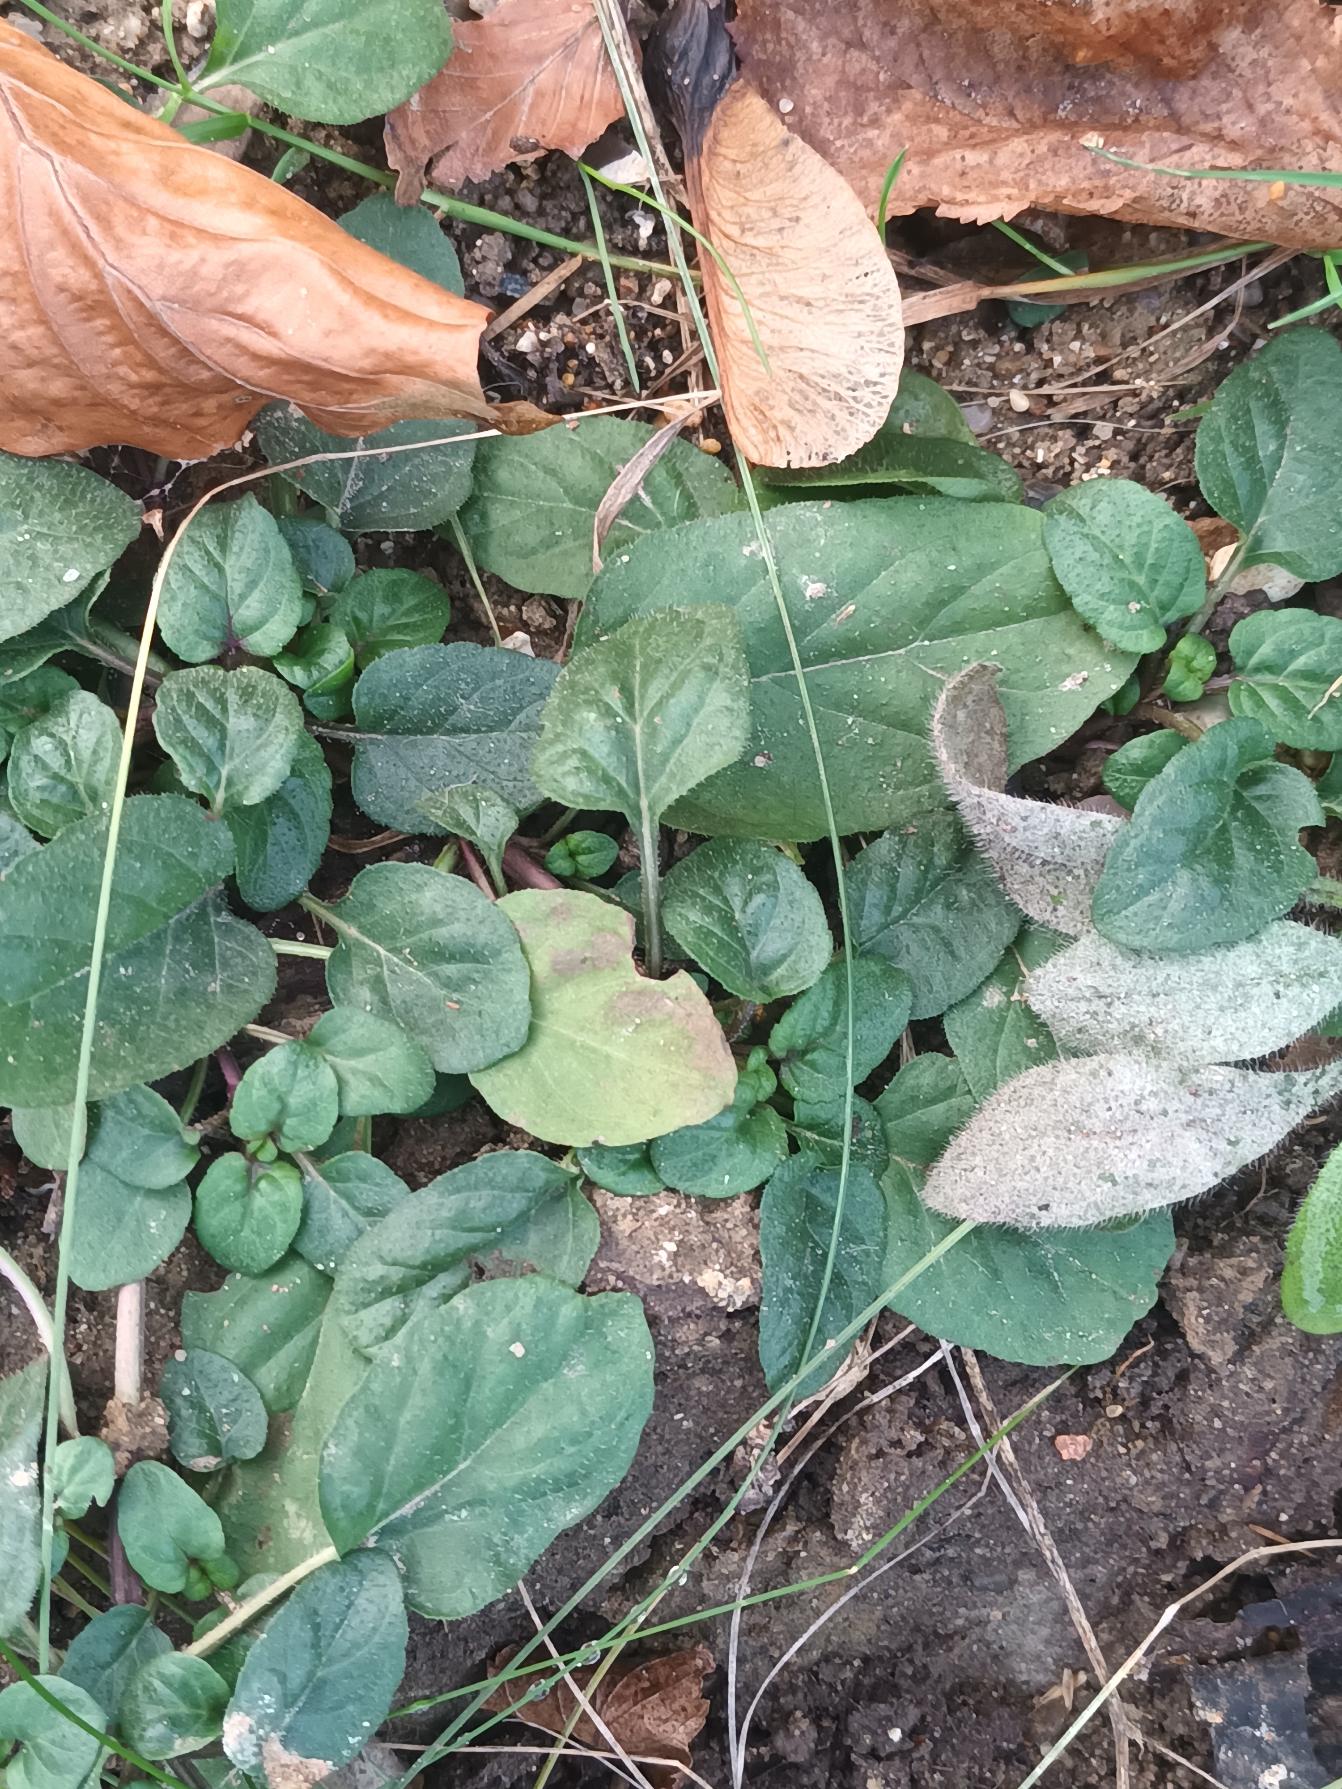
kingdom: Plantae
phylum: Tracheophyta
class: Magnoliopsida
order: Lamiales
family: Lamiaceae
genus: Prunella
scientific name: Prunella vulgaris
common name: Almindelig brunelle
